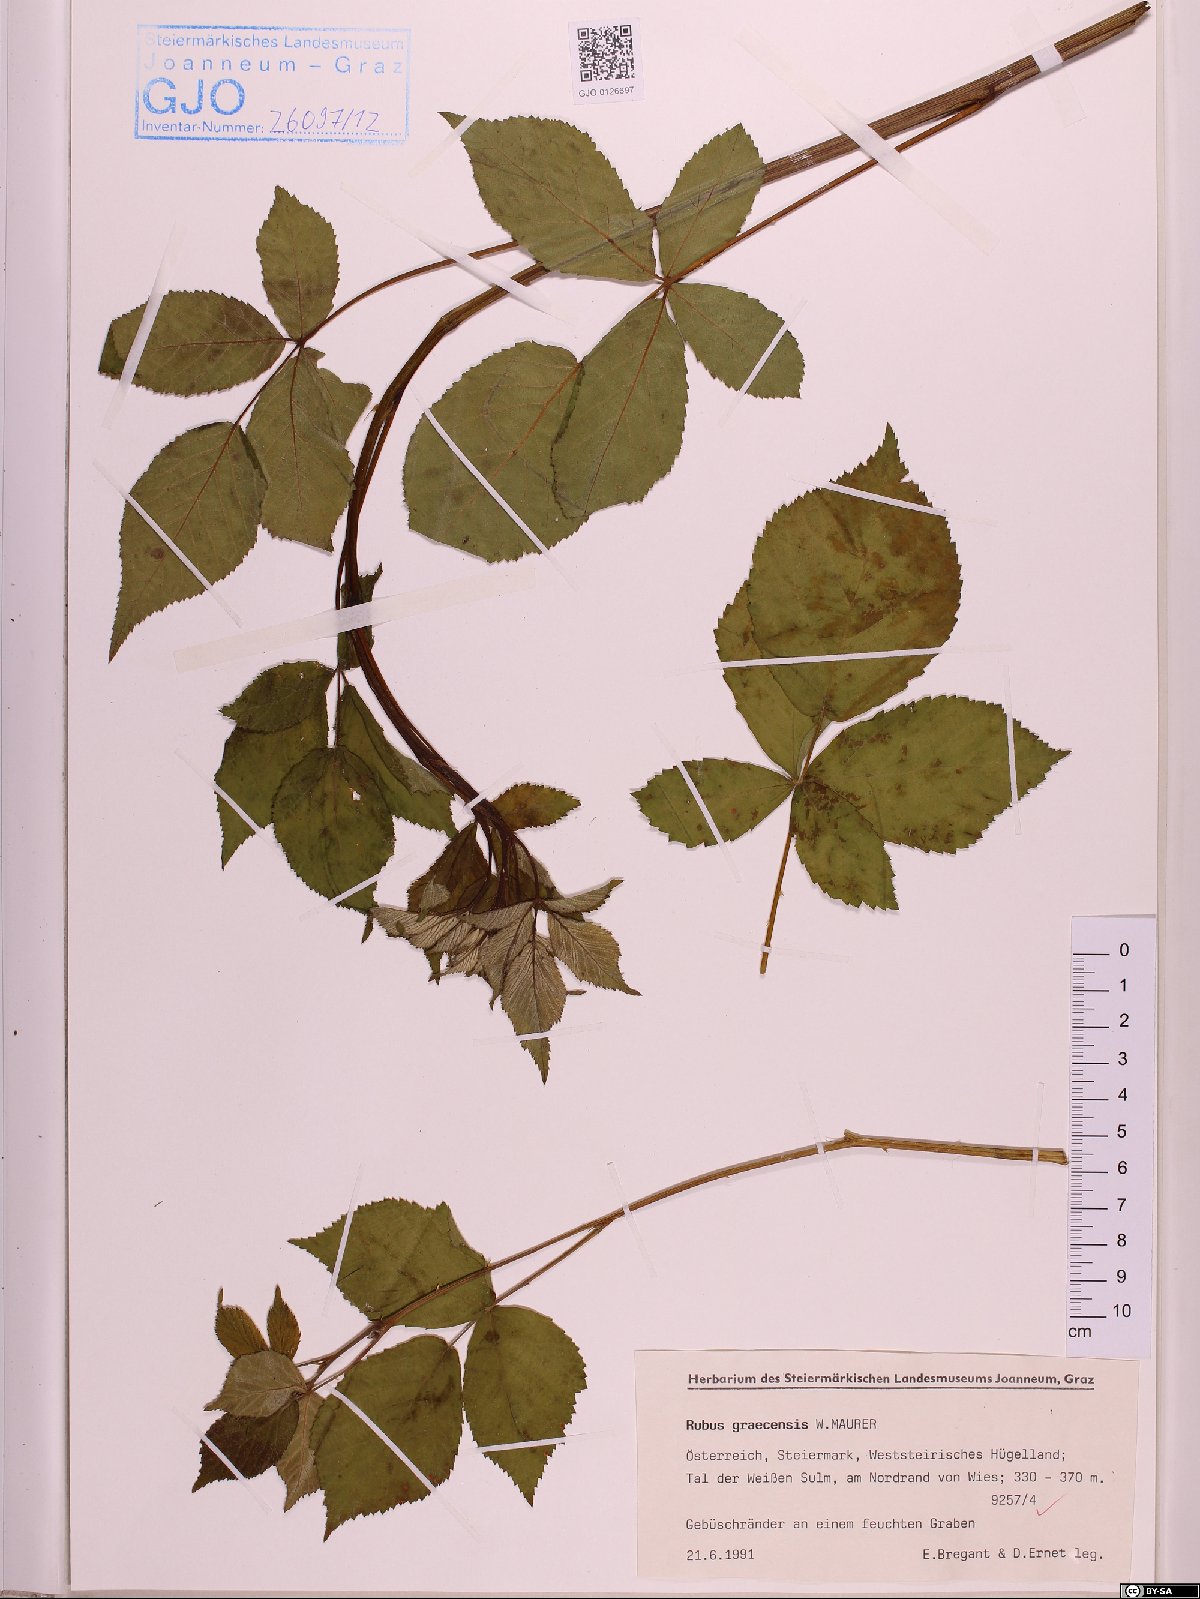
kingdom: Plantae
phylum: Tracheophyta
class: Magnoliopsida
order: Rosales
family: Rosaceae
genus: Rubus
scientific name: Rubus graecensis
